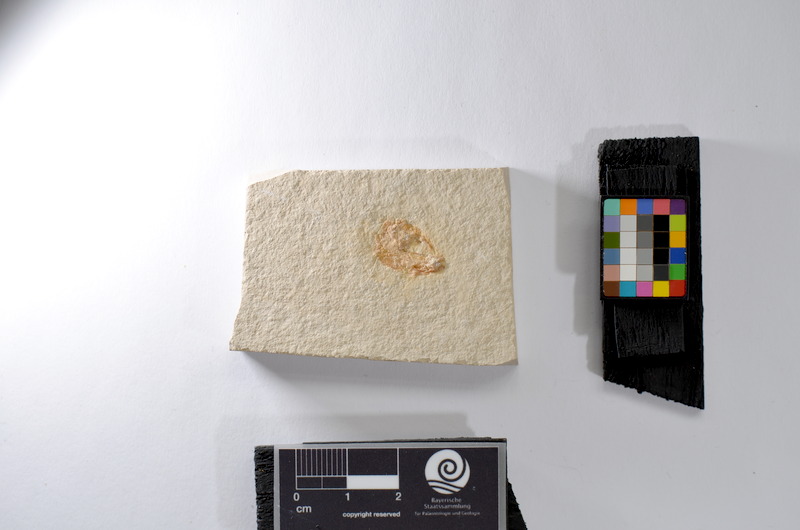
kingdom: Animalia
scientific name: Animalia
